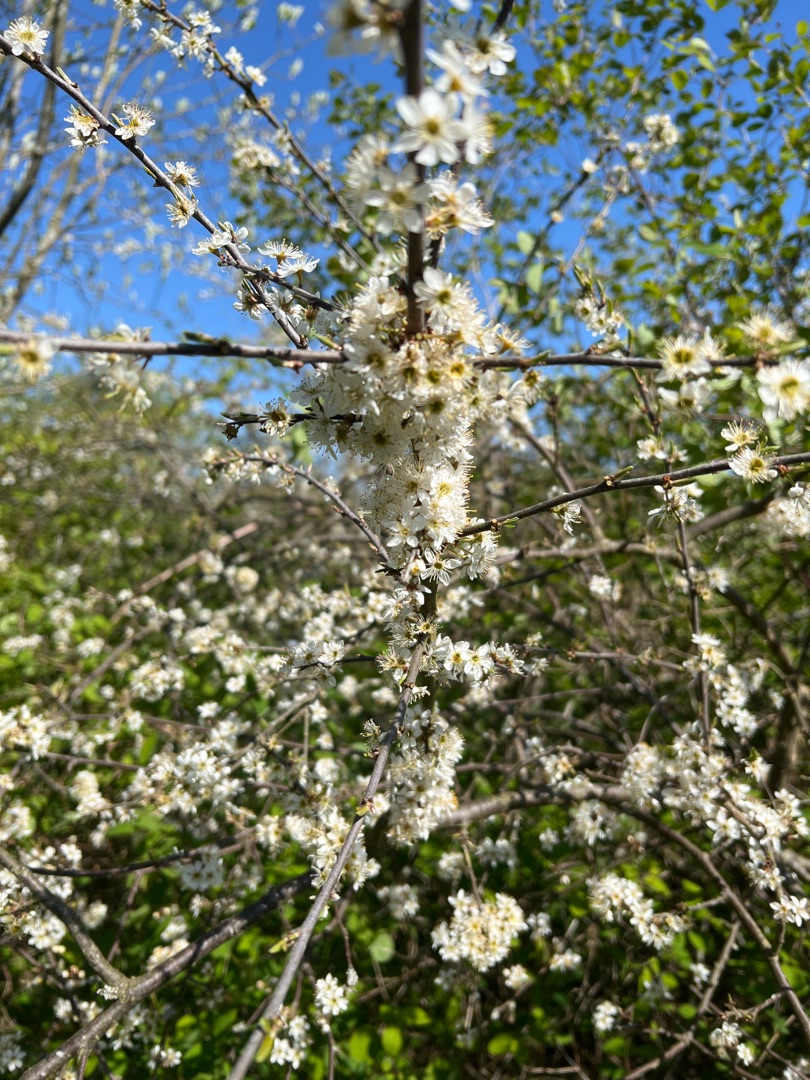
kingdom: Plantae
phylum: Tracheophyta
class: Magnoliopsida
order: Rosales
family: Rosaceae
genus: Prunus
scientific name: Prunus spinosa
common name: Slåen
